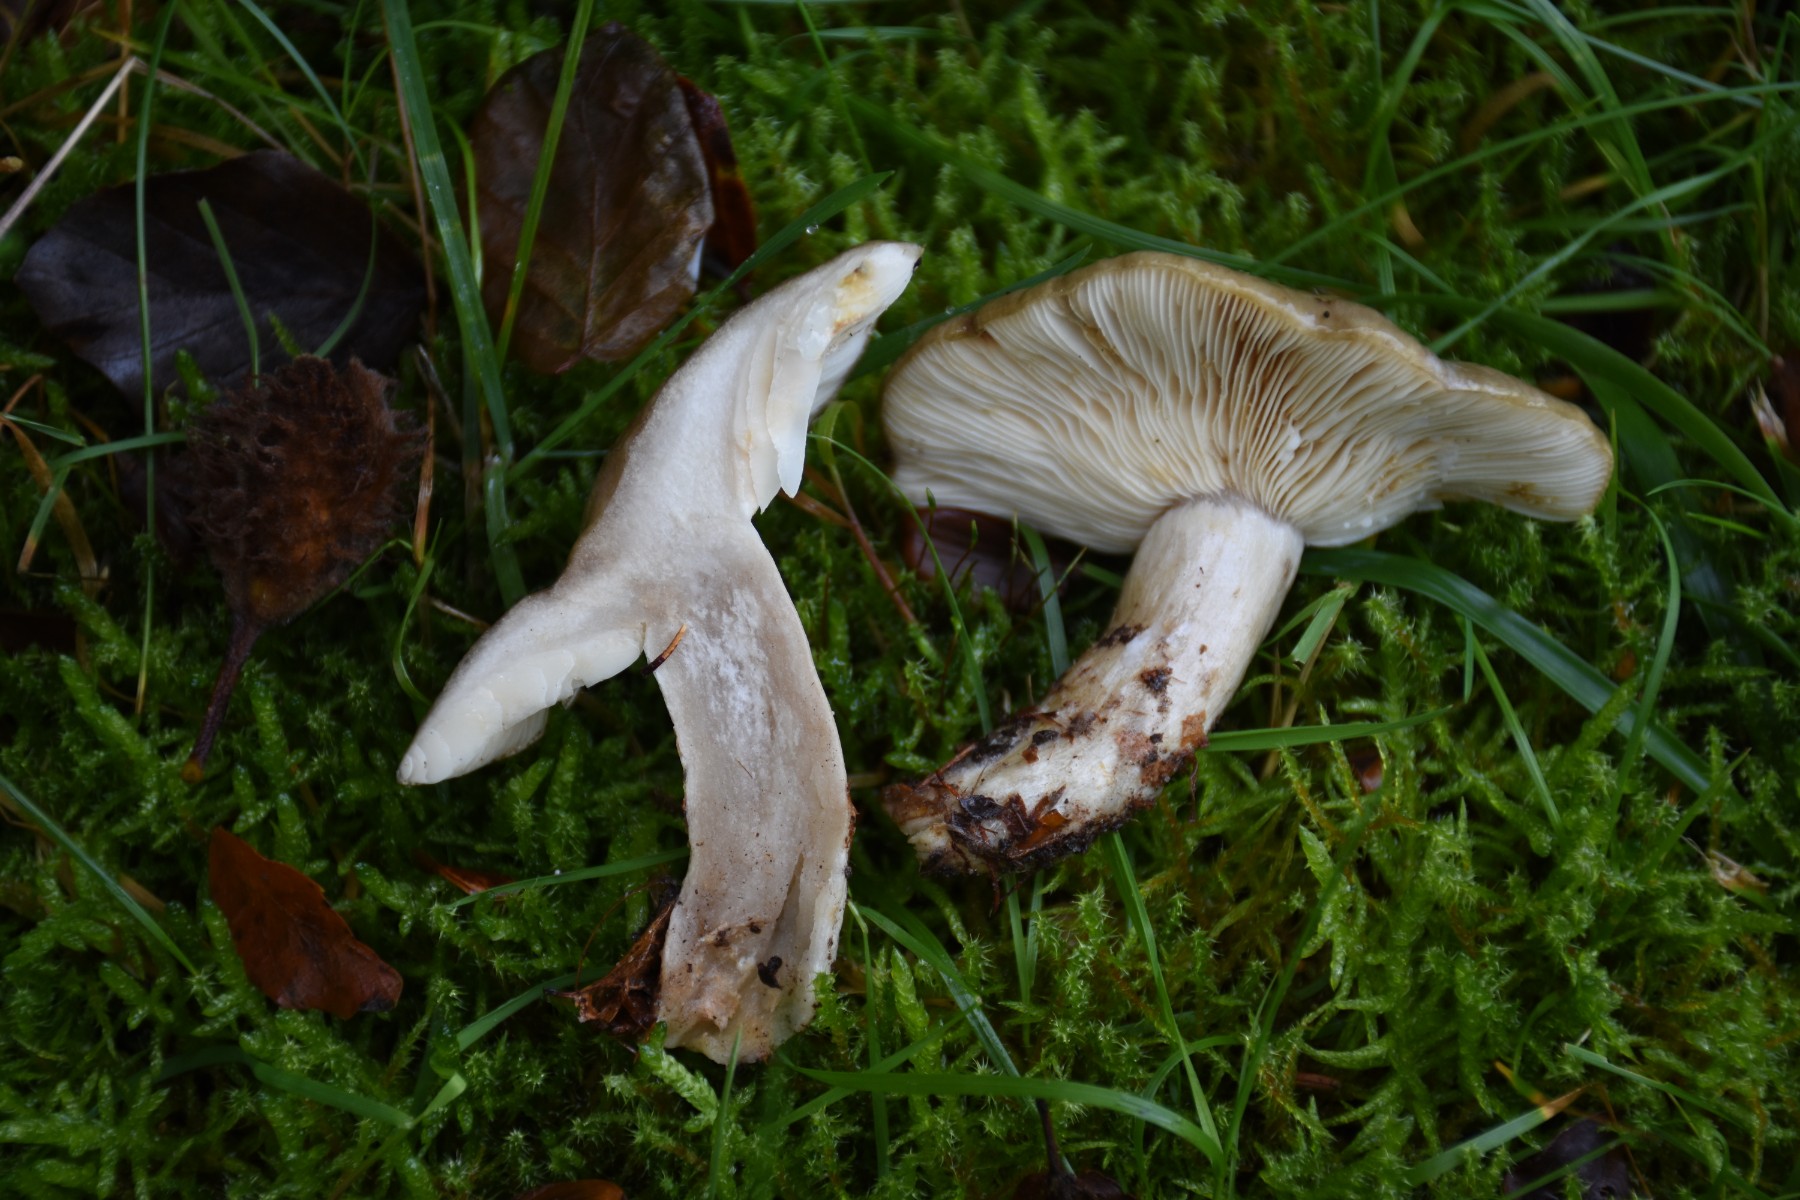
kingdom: Fungi
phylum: Basidiomycota
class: Agaricomycetes
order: Russulales
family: Russulaceae
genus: Lactarius
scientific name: Lactarius blennius
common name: dråbeplettet mælkehat
